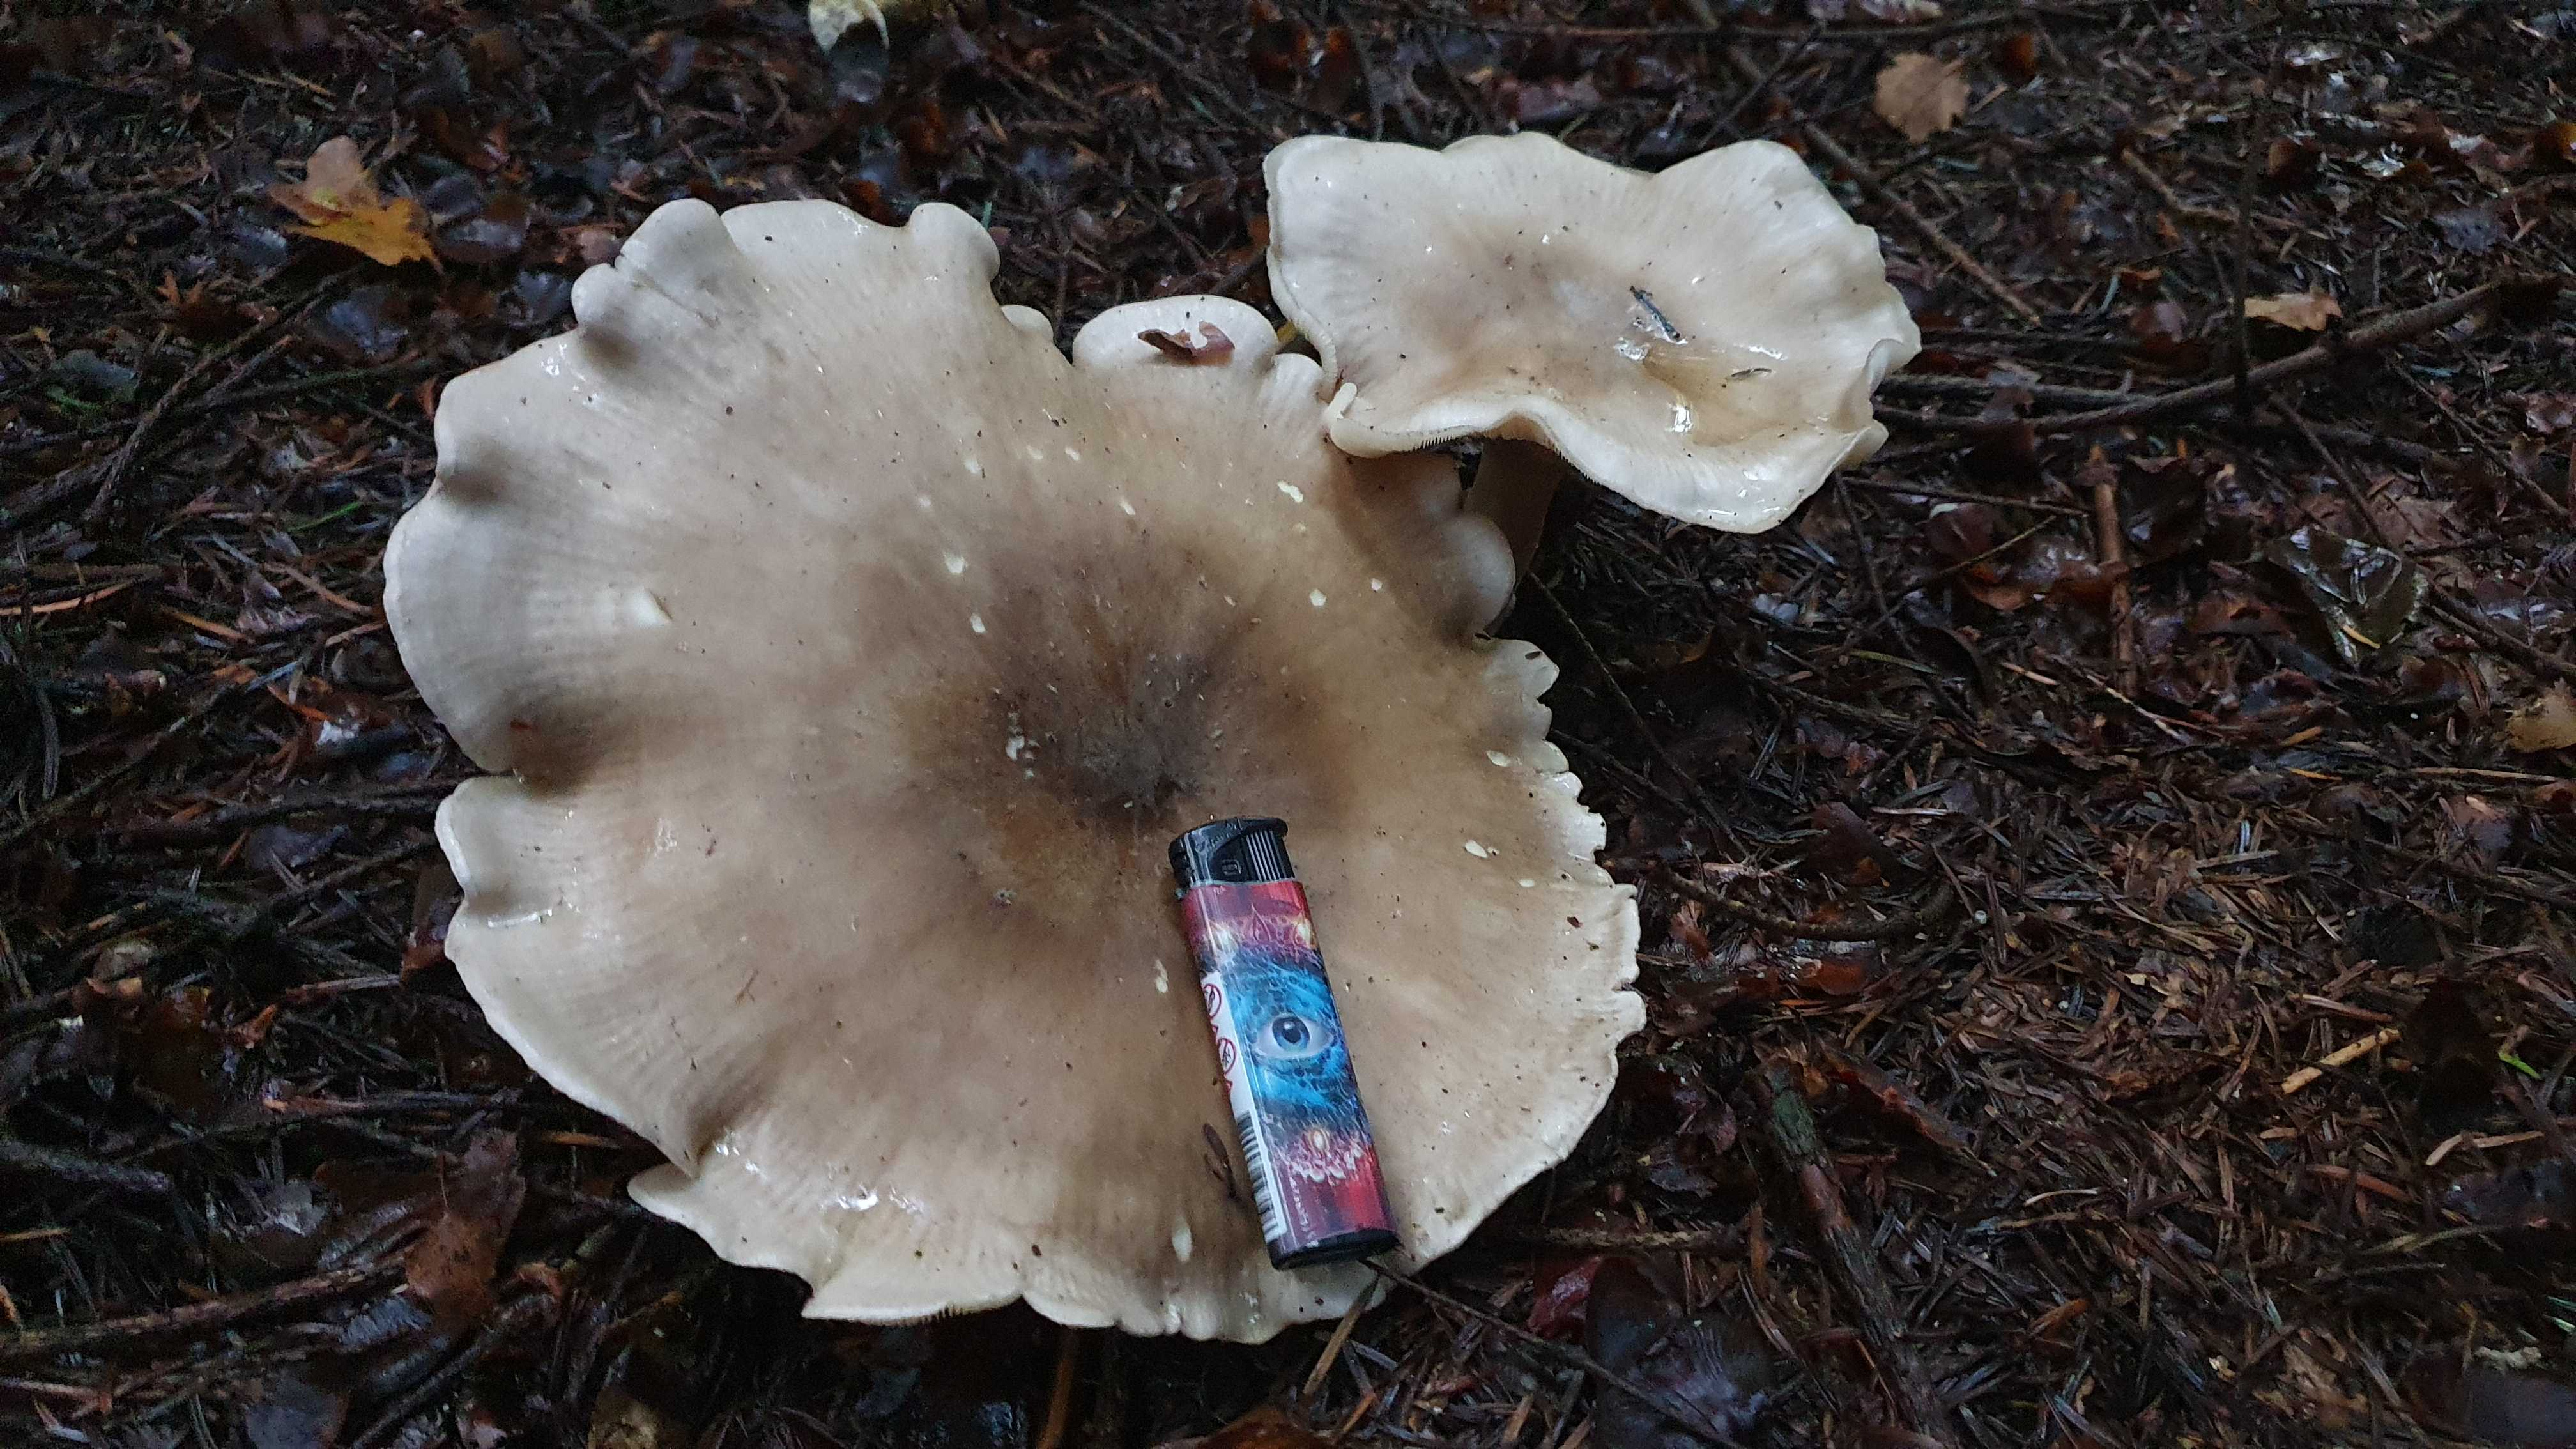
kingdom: Fungi
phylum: Basidiomycota
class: Agaricomycetes
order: Agaricales
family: Tricholomataceae
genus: Clitocybe
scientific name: Clitocybe nebularis
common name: tåge-tragthat
